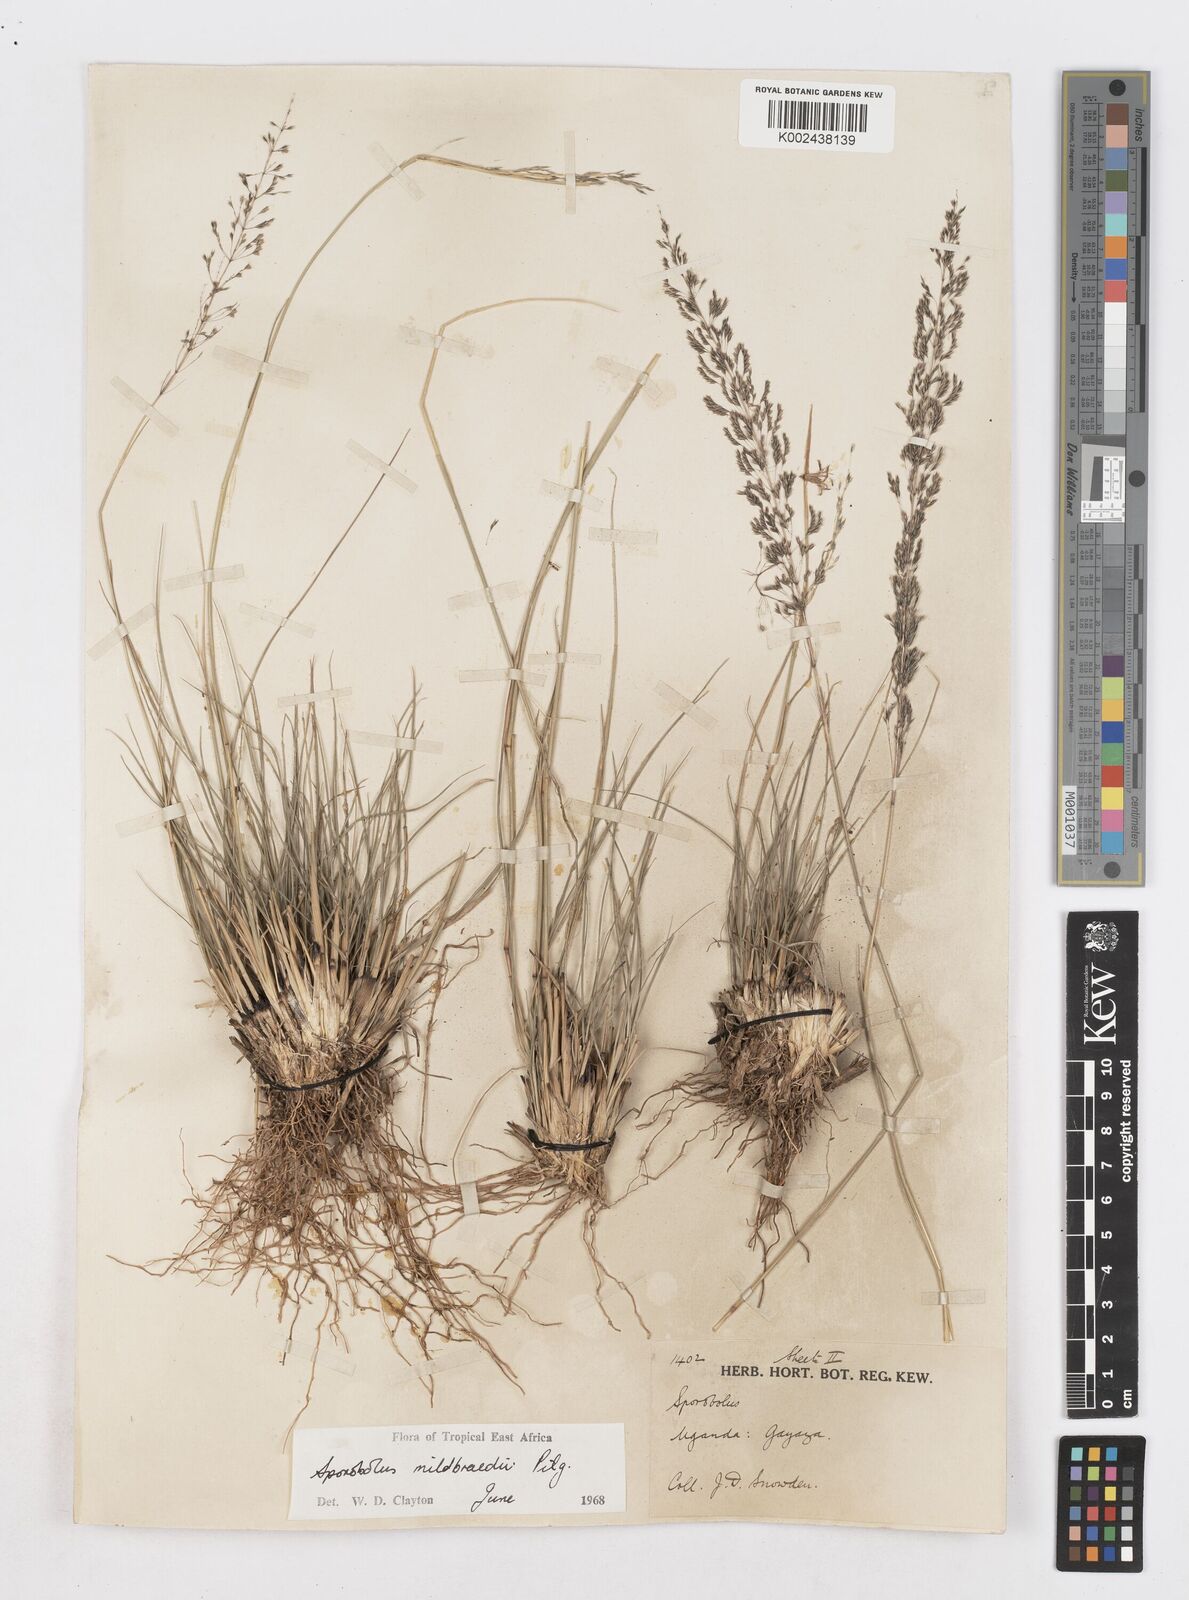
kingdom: Plantae
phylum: Tracheophyta
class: Liliopsida
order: Poales
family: Poaceae
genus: Sporobolus
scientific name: Sporobolus mildbraedii
